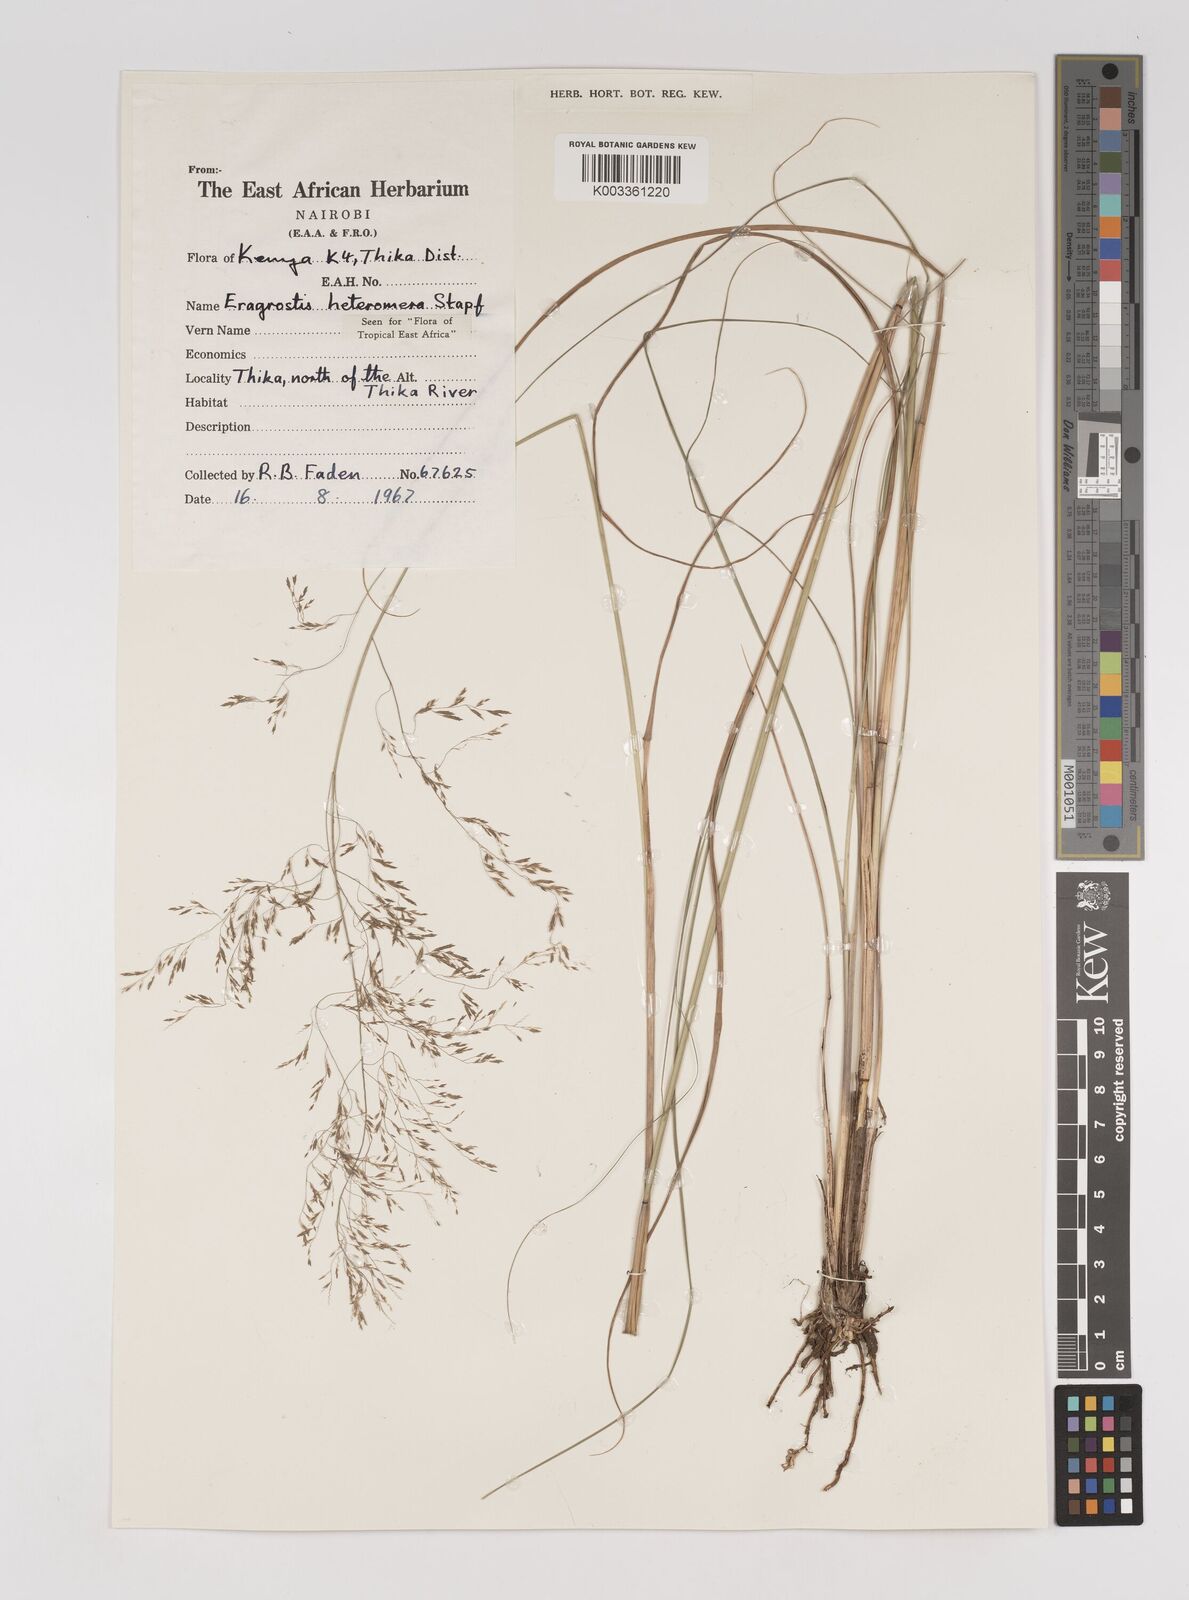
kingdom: Plantae
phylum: Tracheophyta
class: Liliopsida
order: Poales
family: Poaceae
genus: Eragrostis
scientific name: Eragrostis heteromera
